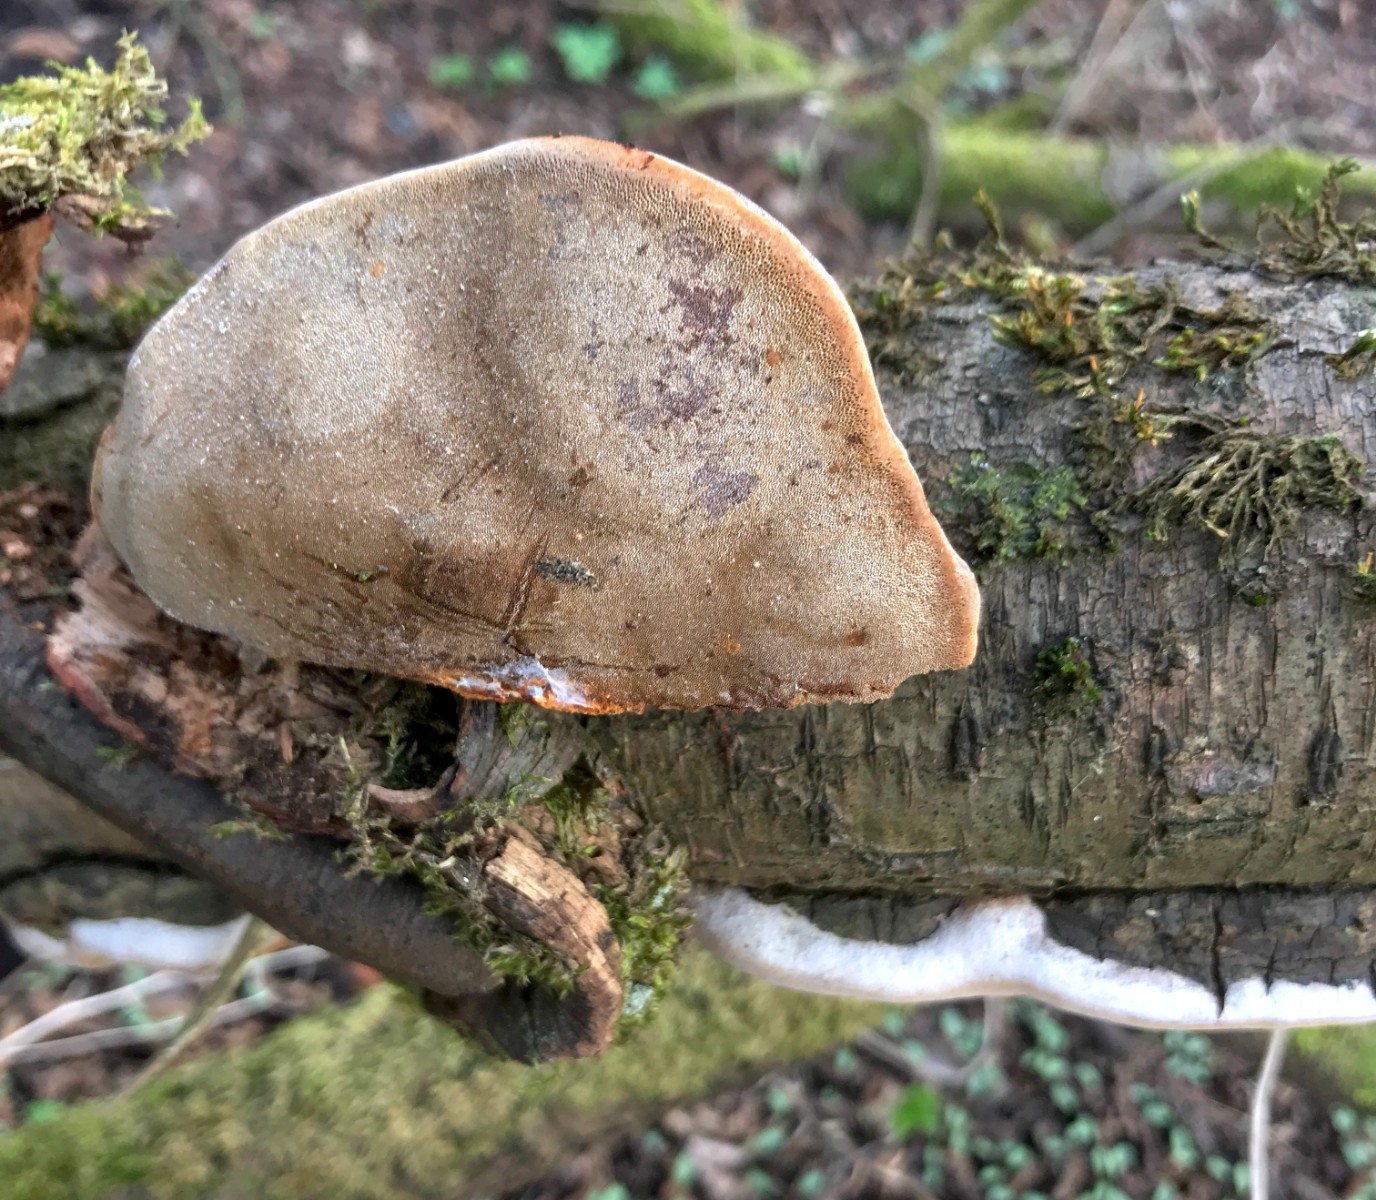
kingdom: Fungi
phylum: Basidiomycota
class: Agaricomycetes
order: Hymenochaetales
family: Hymenochaetaceae
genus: Phellinus
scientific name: Phellinus pomaceus
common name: blomme-ildporesvamp
